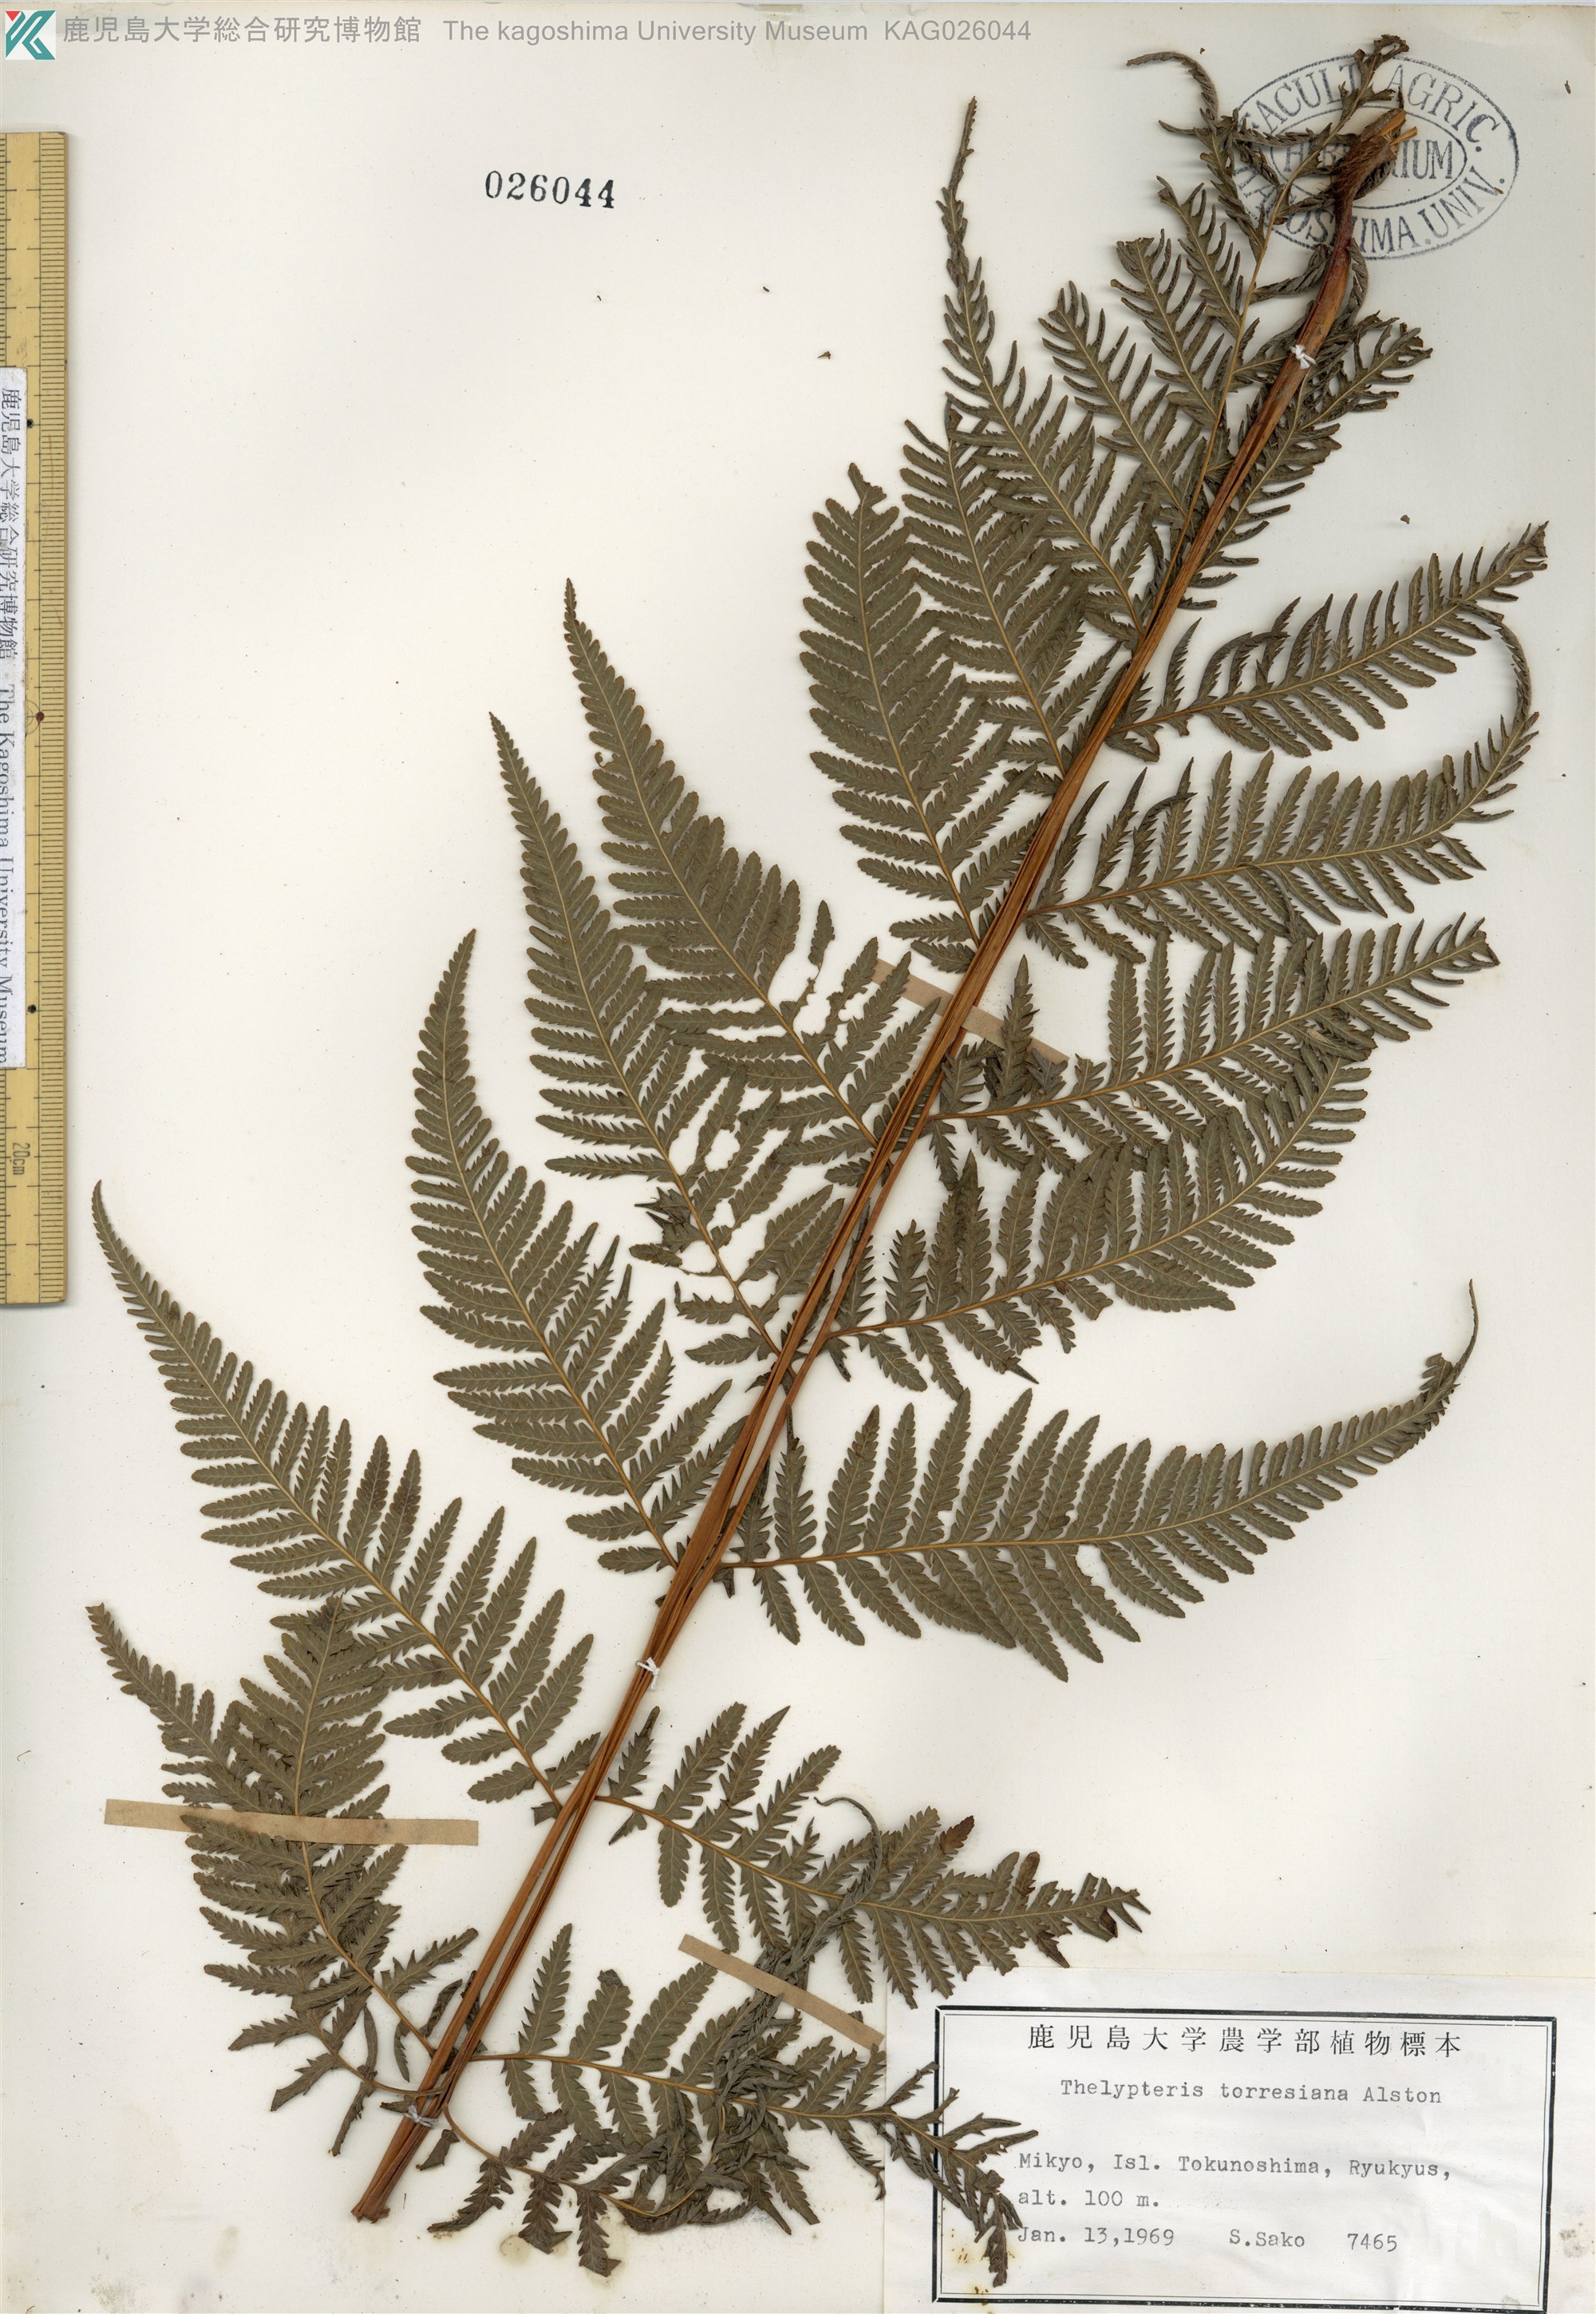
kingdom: Plantae
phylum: Tracheophyta
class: Polypodiopsida
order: Polypodiales
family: Thelypteridaceae
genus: Macrothelypteris
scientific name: Macrothelypteris oligophlebia
